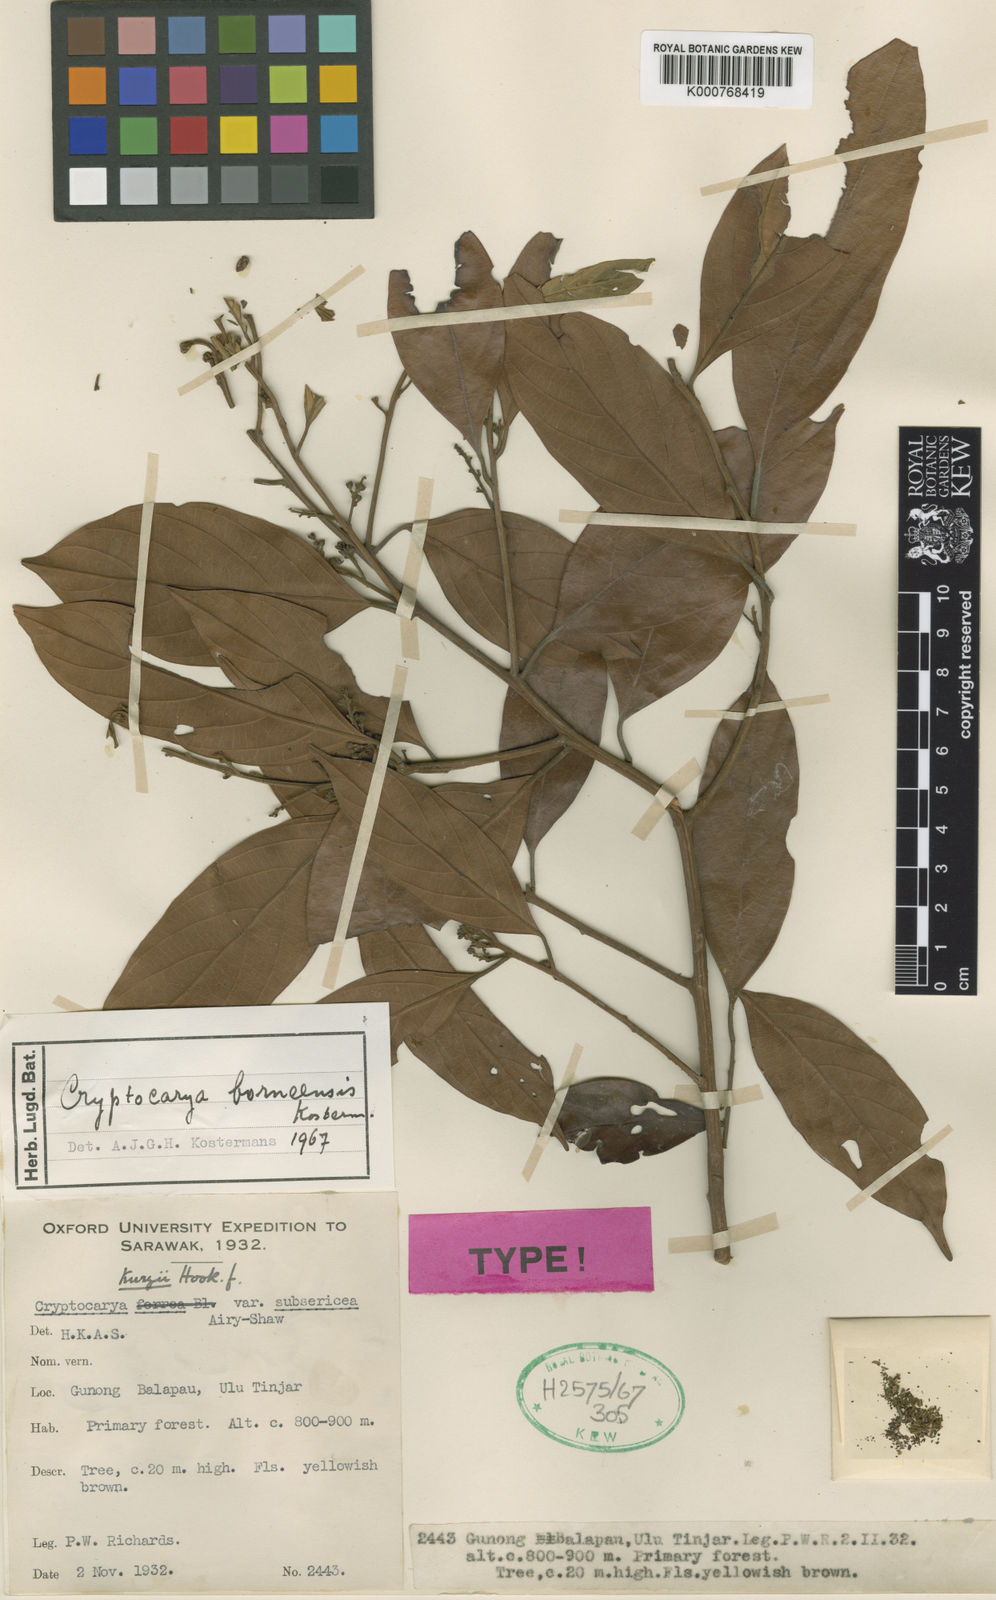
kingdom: Plantae
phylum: Tracheophyta
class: Magnoliopsida
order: Laurales
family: Lauraceae
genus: Cryptocarya
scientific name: Cryptocarya kurzii
